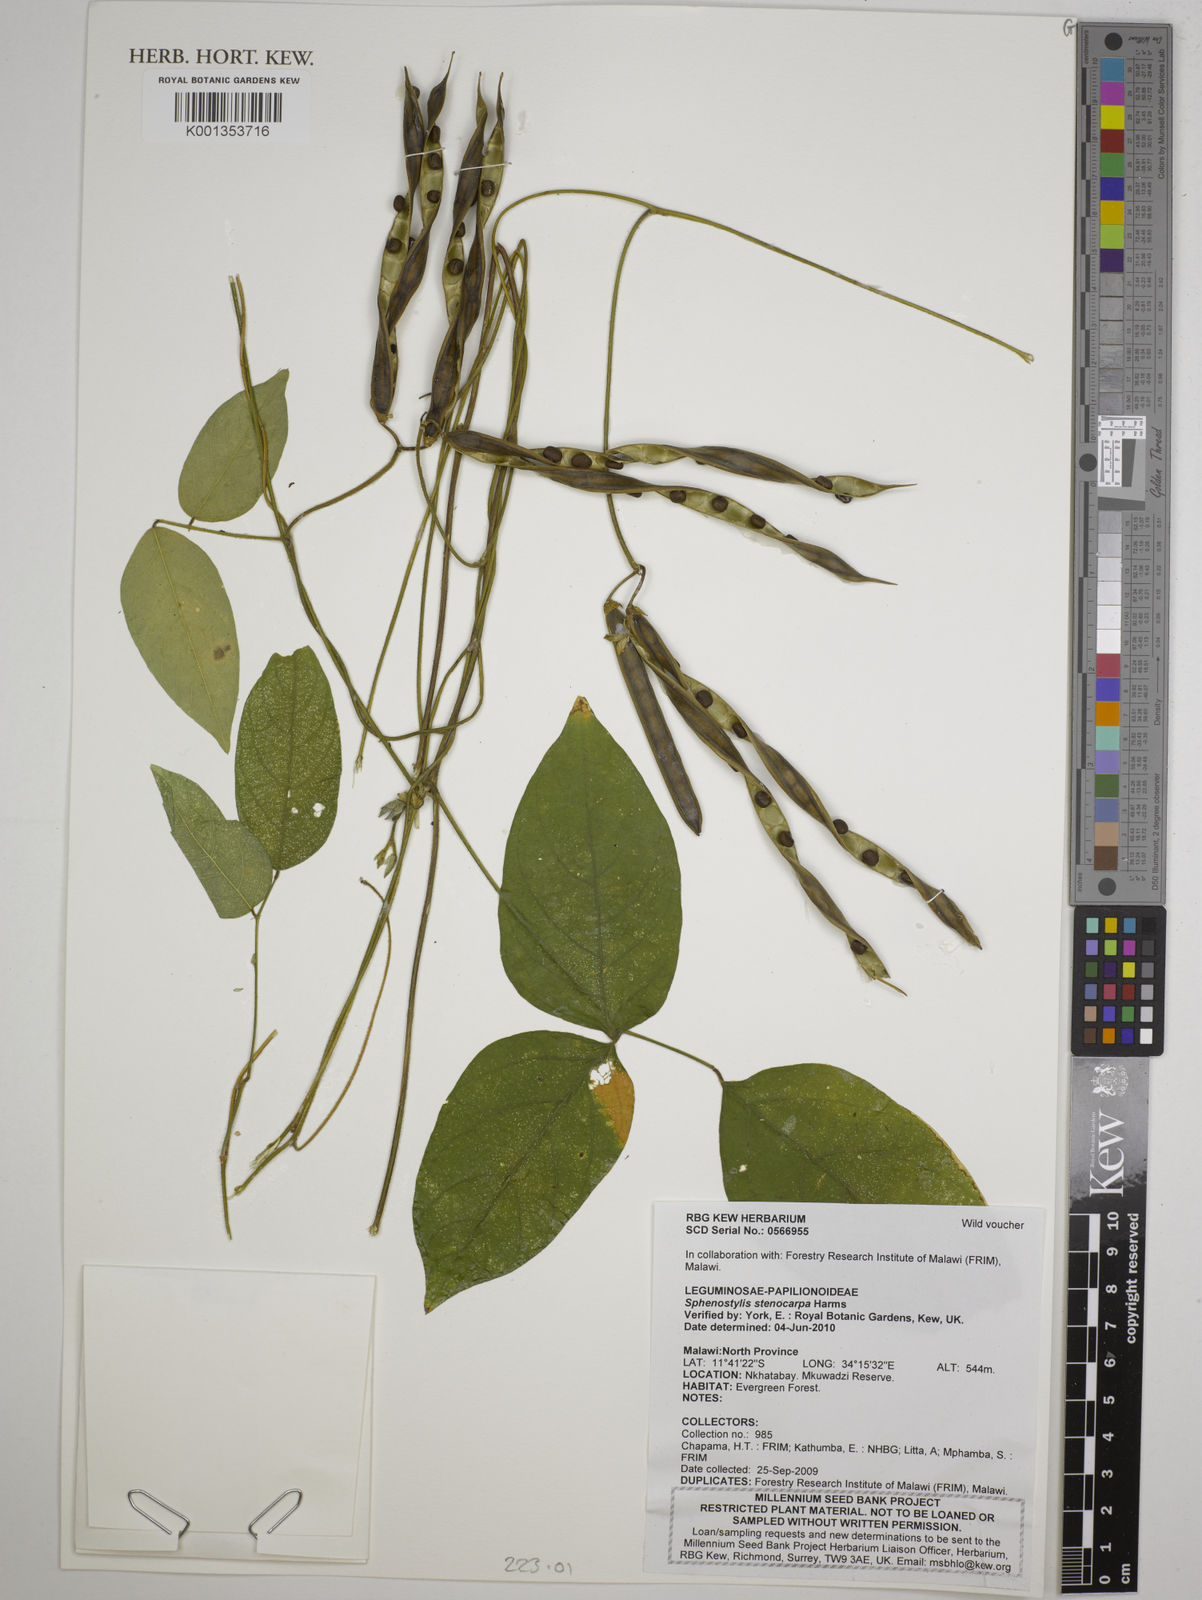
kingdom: Plantae
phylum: Tracheophyta
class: Magnoliopsida
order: Fabales
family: Fabaceae
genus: Sphenostylis
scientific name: Sphenostylis stenocarpa
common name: Yam-pea
